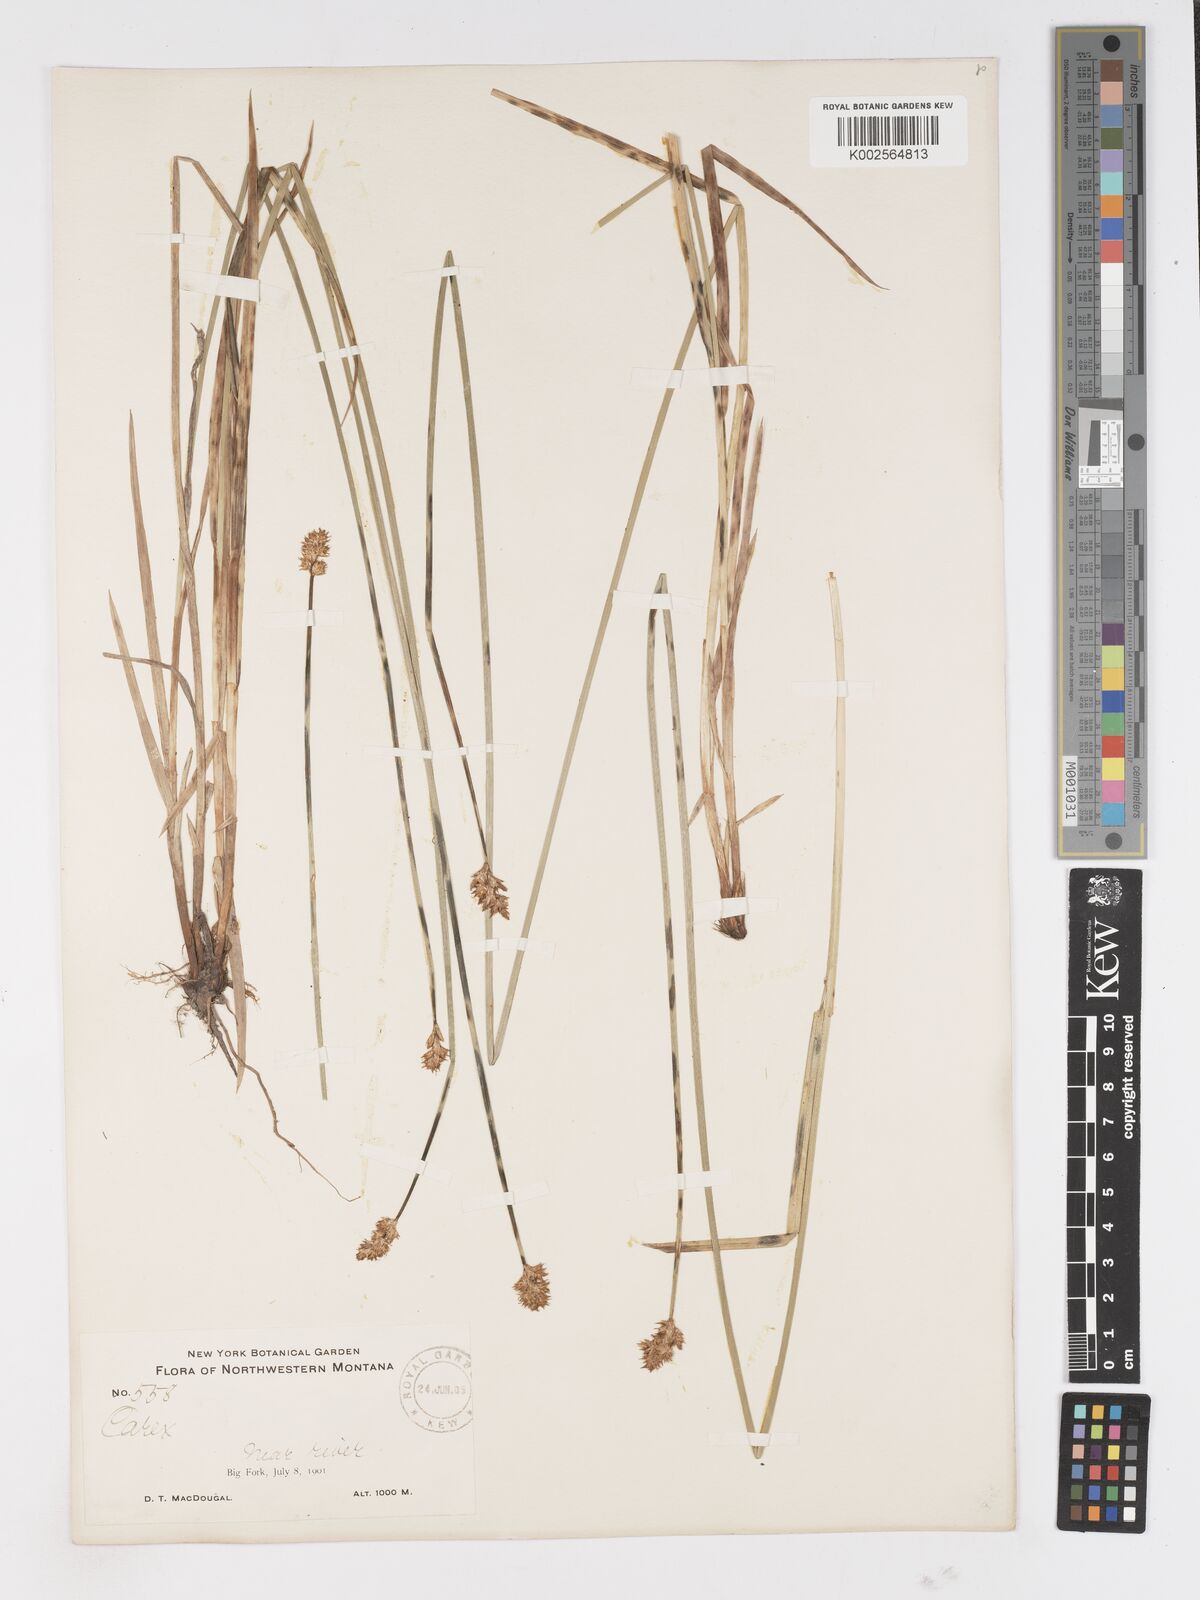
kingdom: Plantae
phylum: Tracheophyta
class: Liliopsida
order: Poales
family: Cyperaceae
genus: Carex
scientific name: Carex
